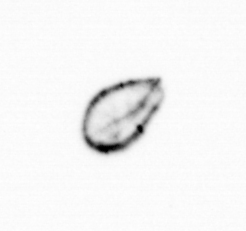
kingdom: Chromista
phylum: Ochrophyta
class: Bacillariophyceae
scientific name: Bacillariophyceae
